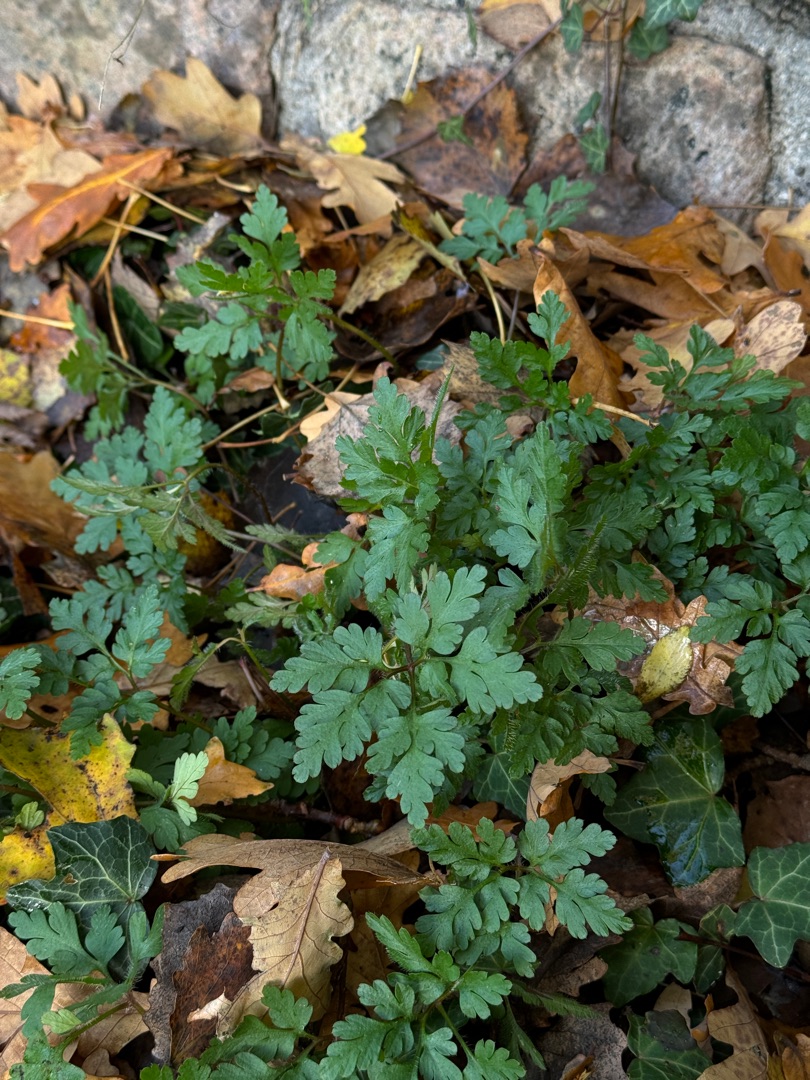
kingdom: Plantae
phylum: Tracheophyta
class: Magnoliopsida
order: Geraniales
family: Geraniaceae
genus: Geranium
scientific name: Geranium robertianum
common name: Stinkende storkenæb
